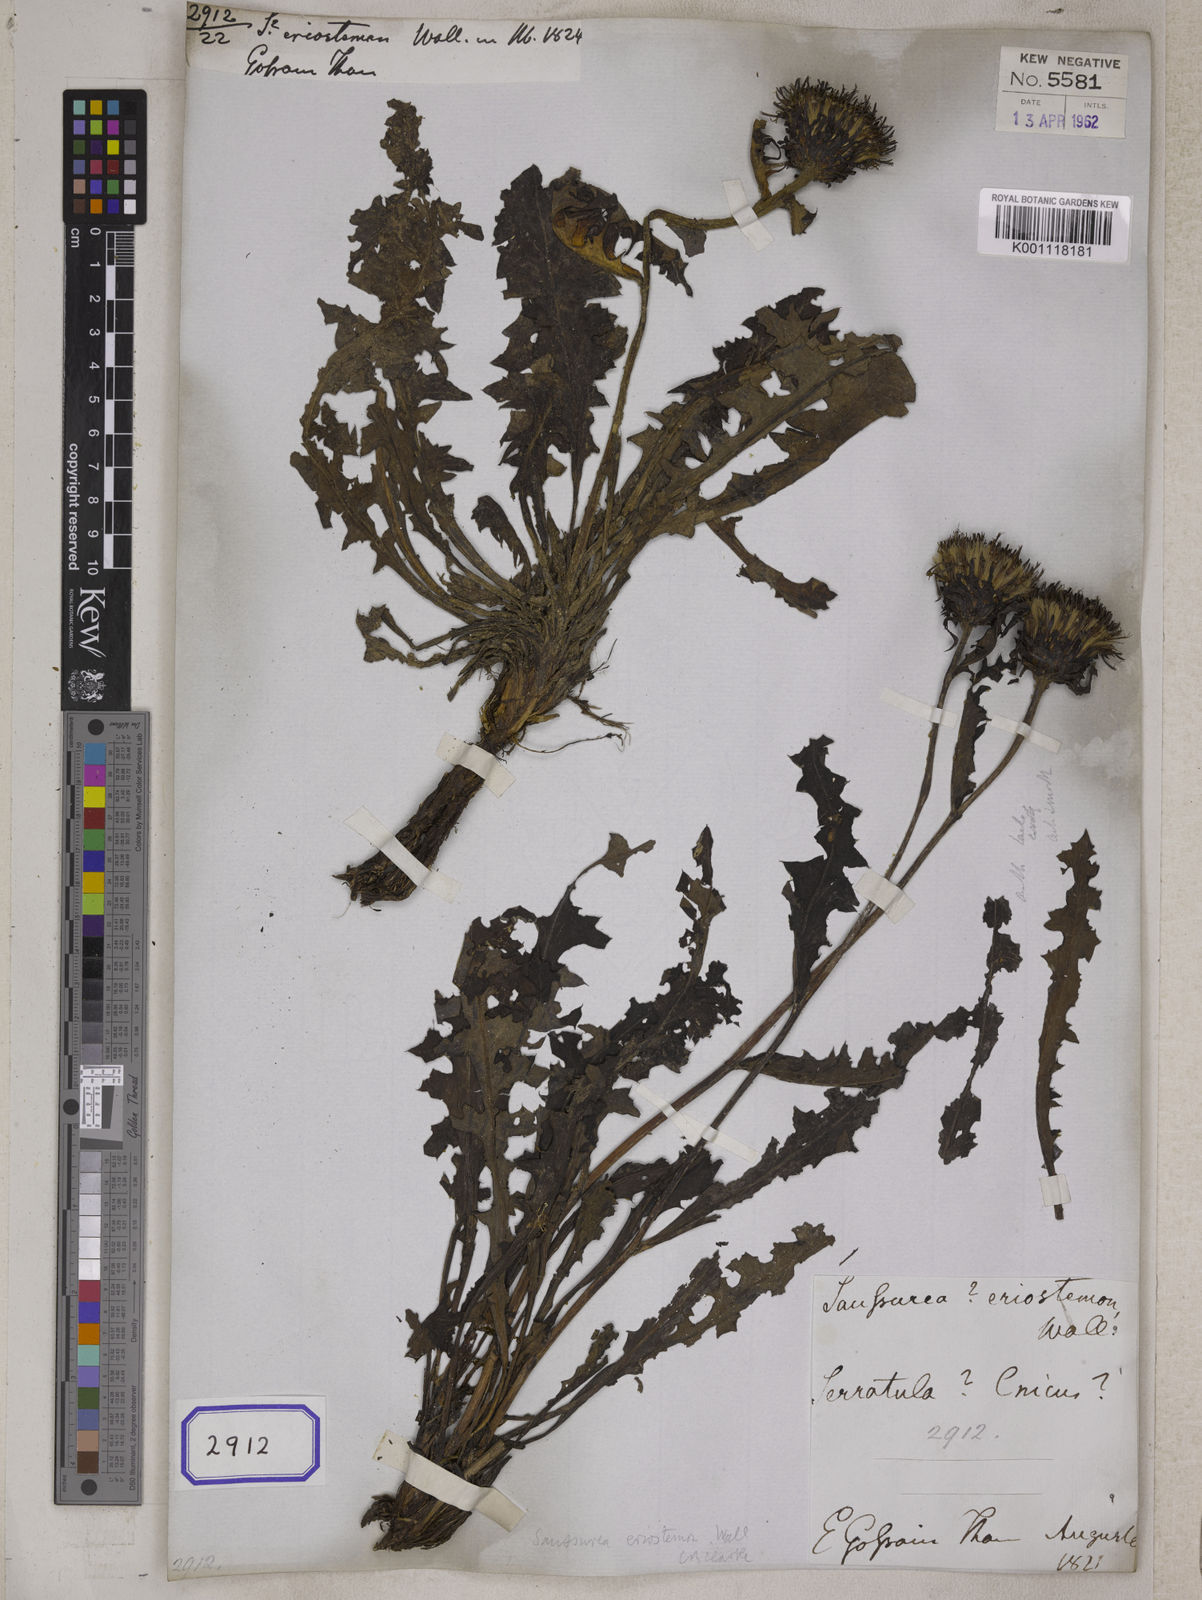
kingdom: Plantae
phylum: Tracheophyta
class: Magnoliopsida
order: Asterales
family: Asteraceae
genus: Saussurea
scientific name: Saussurea
